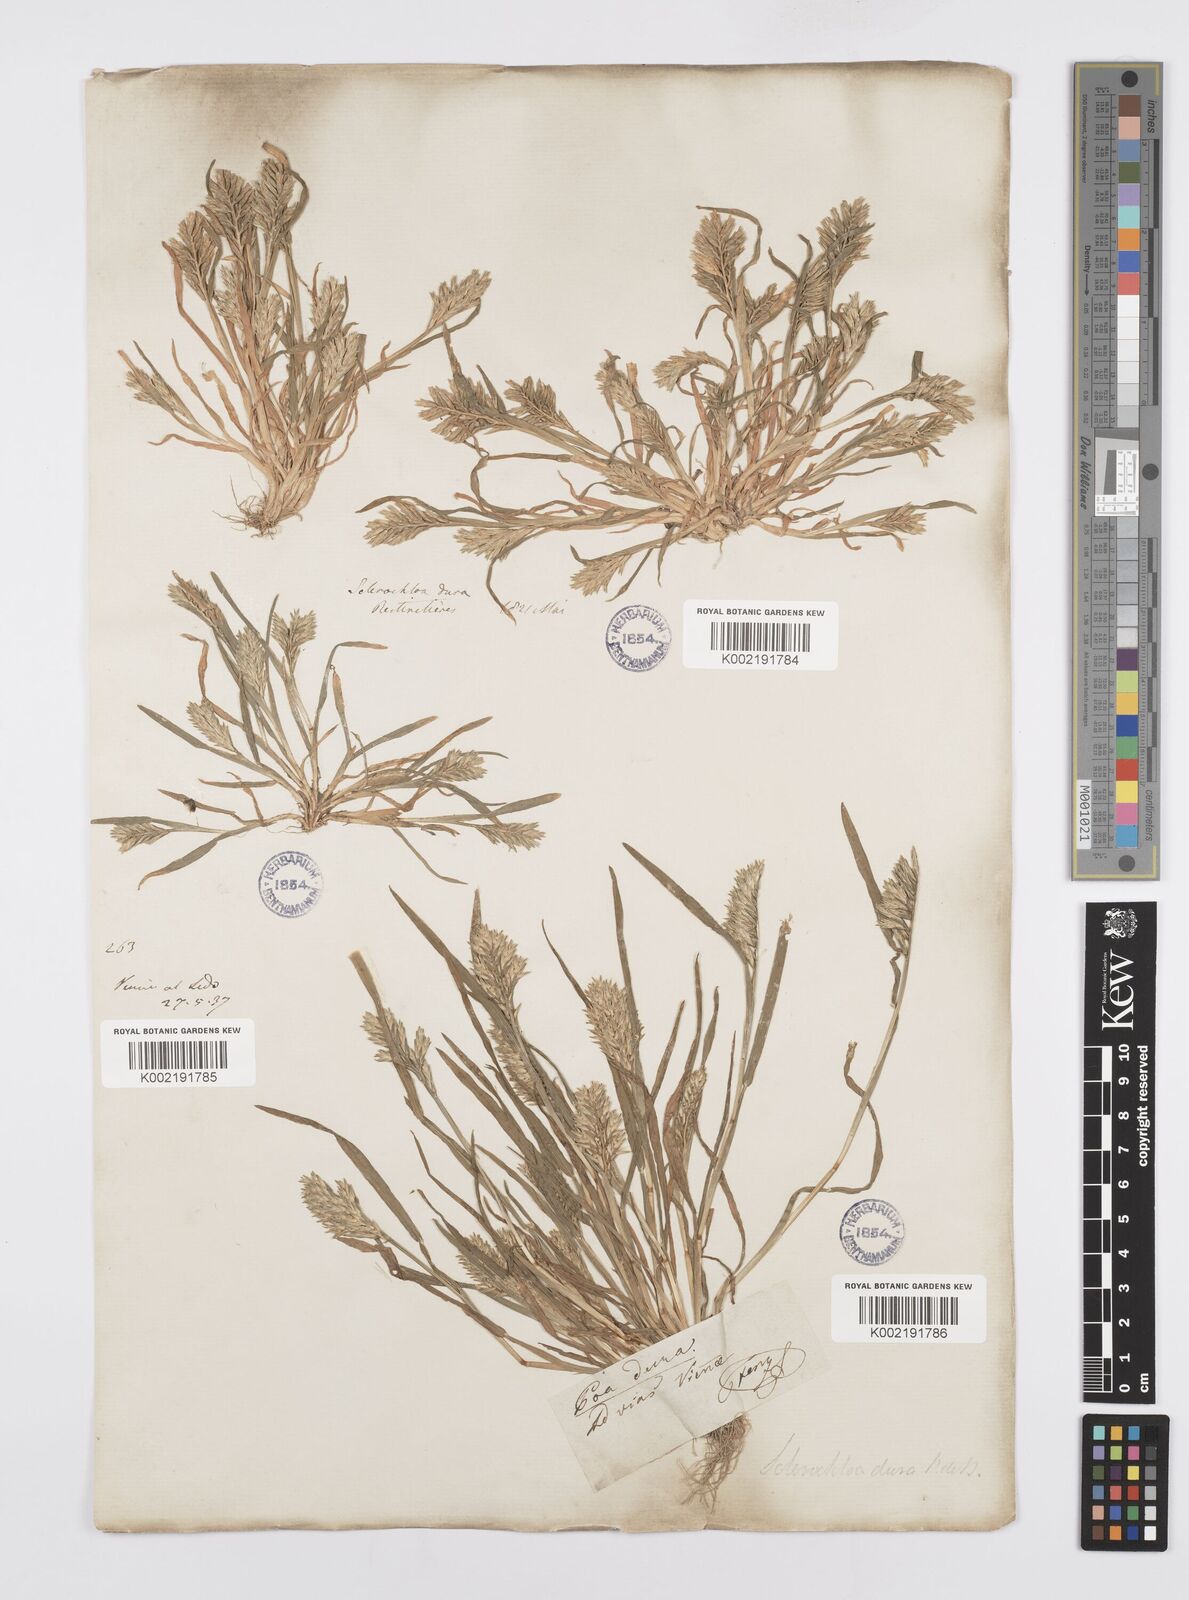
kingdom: Plantae
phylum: Tracheophyta
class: Liliopsida
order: Poales
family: Poaceae
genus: Sclerochloa
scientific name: Sclerochloa dura
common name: Common hardgrass
